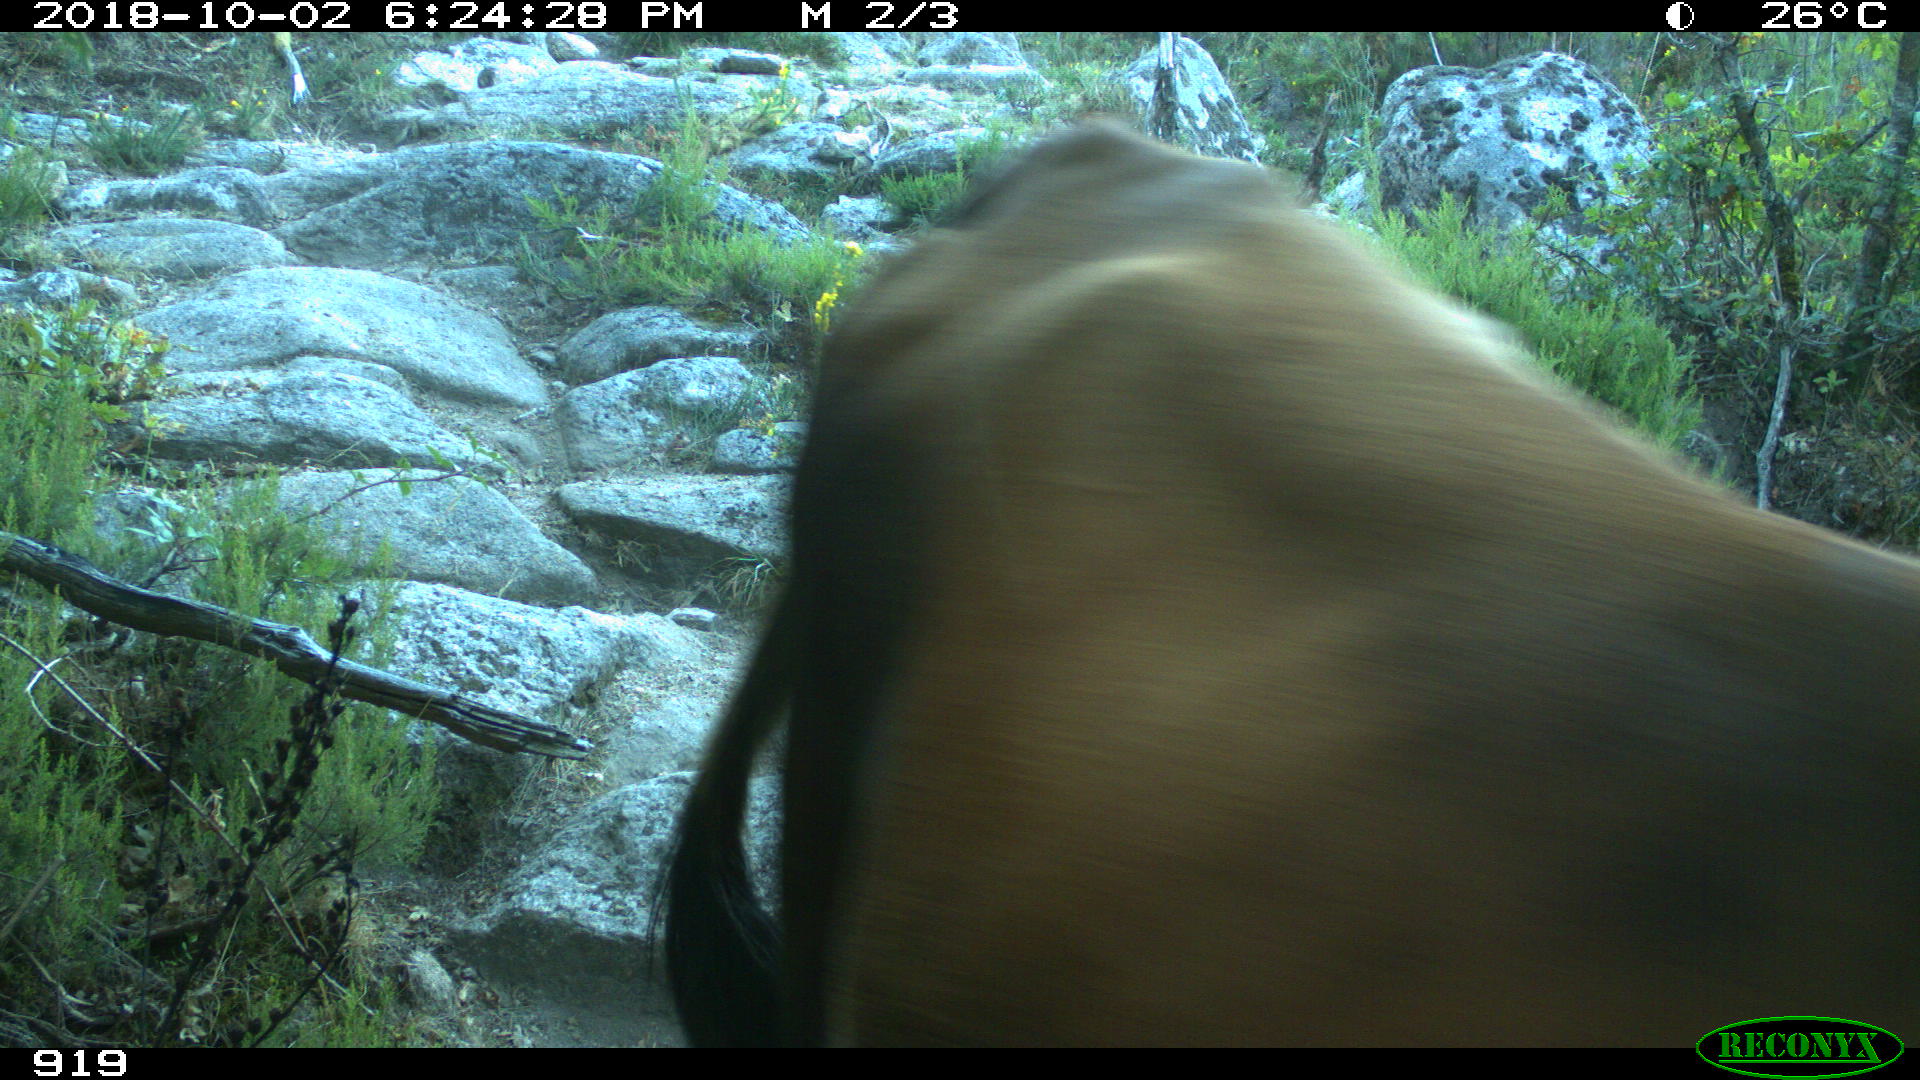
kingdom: Animalia
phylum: Chordata
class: Mammalia
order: Artiodactyla
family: Bovidae
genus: Bos
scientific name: Bos taurus
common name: Domesticated cattle
